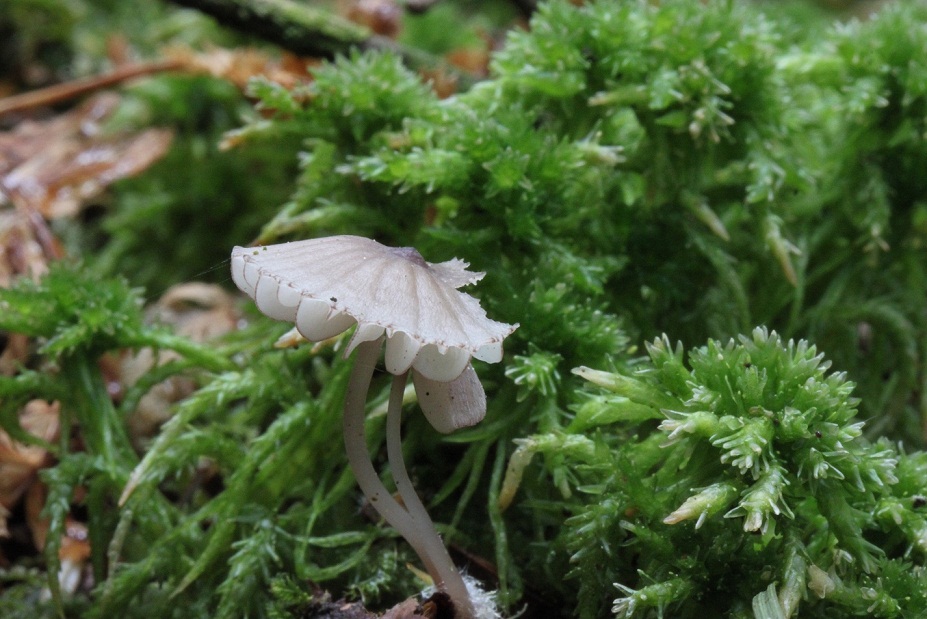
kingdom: Fungi
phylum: Basidiomycota
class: Agaricomycetes
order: Agaricales
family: Mycenaceae
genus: Mycena
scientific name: Mycena rubromarginata
